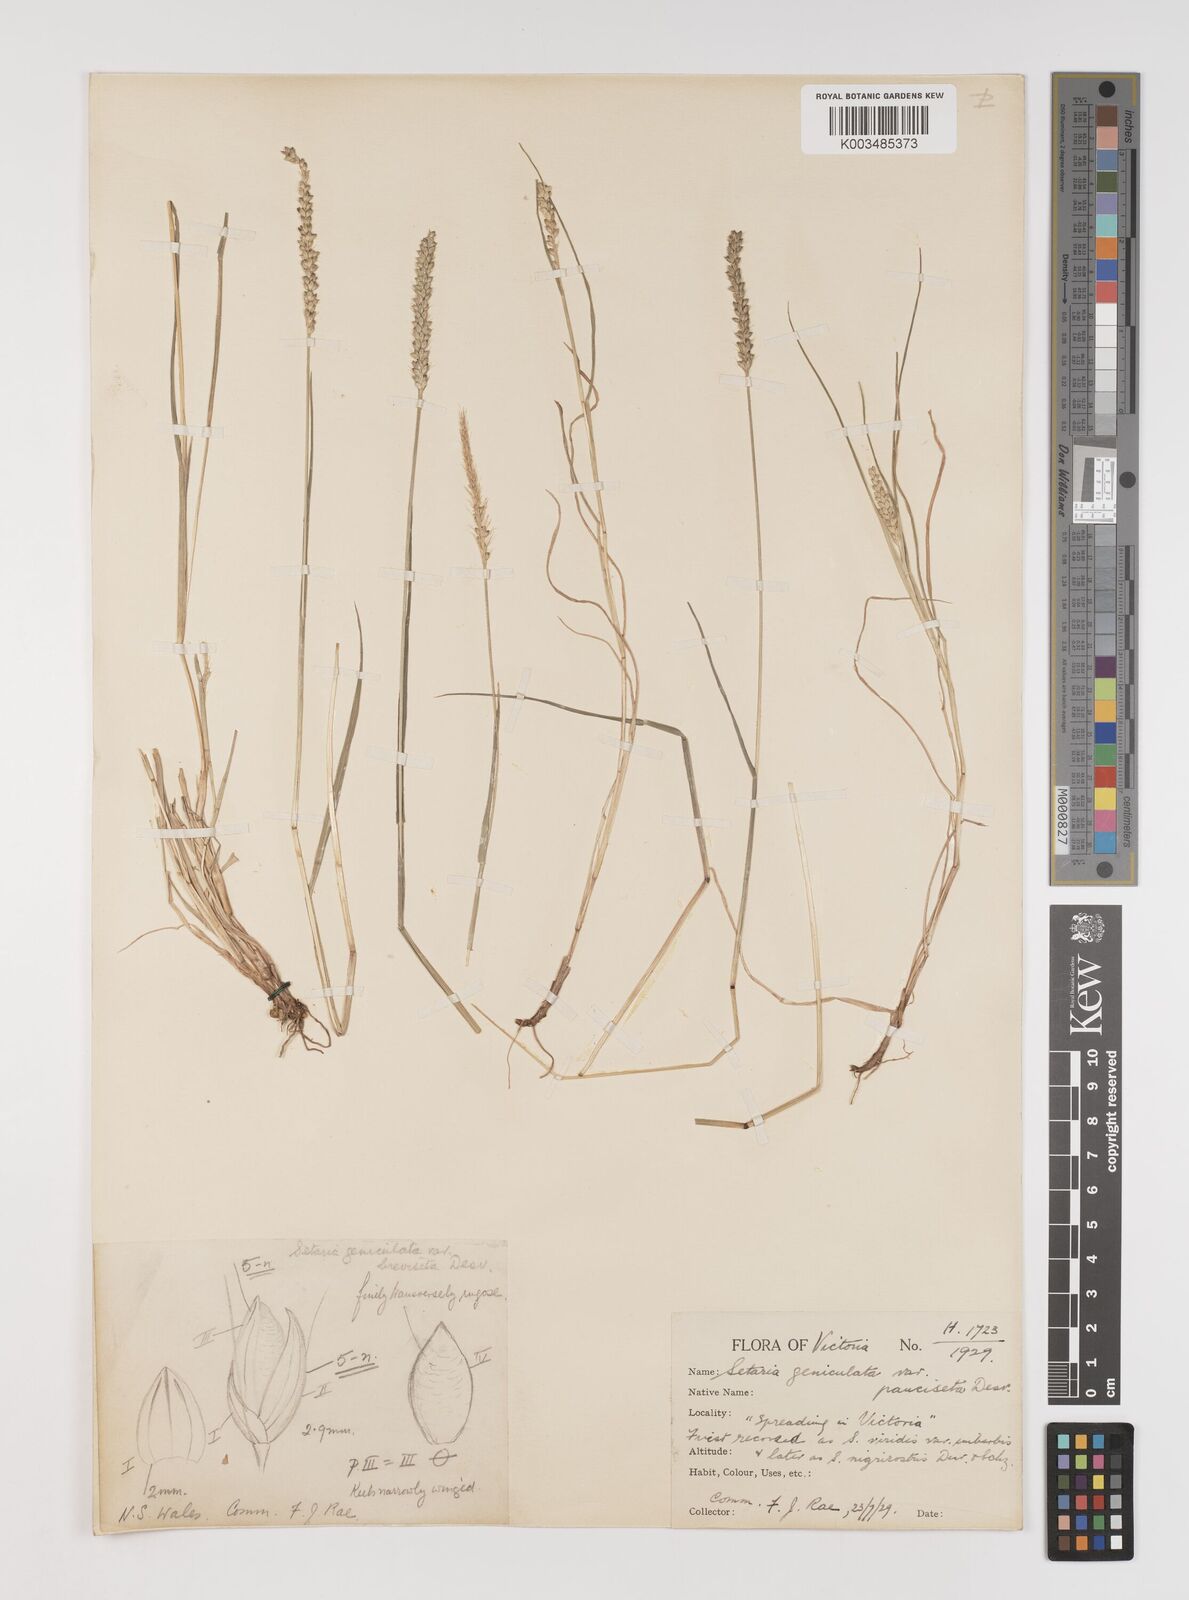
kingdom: Plantae
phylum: Tracheophyta
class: Liliopsida
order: Poales
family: Poaceae
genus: Setaria
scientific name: Setaria parviflora
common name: Knotroot bristle-grass
